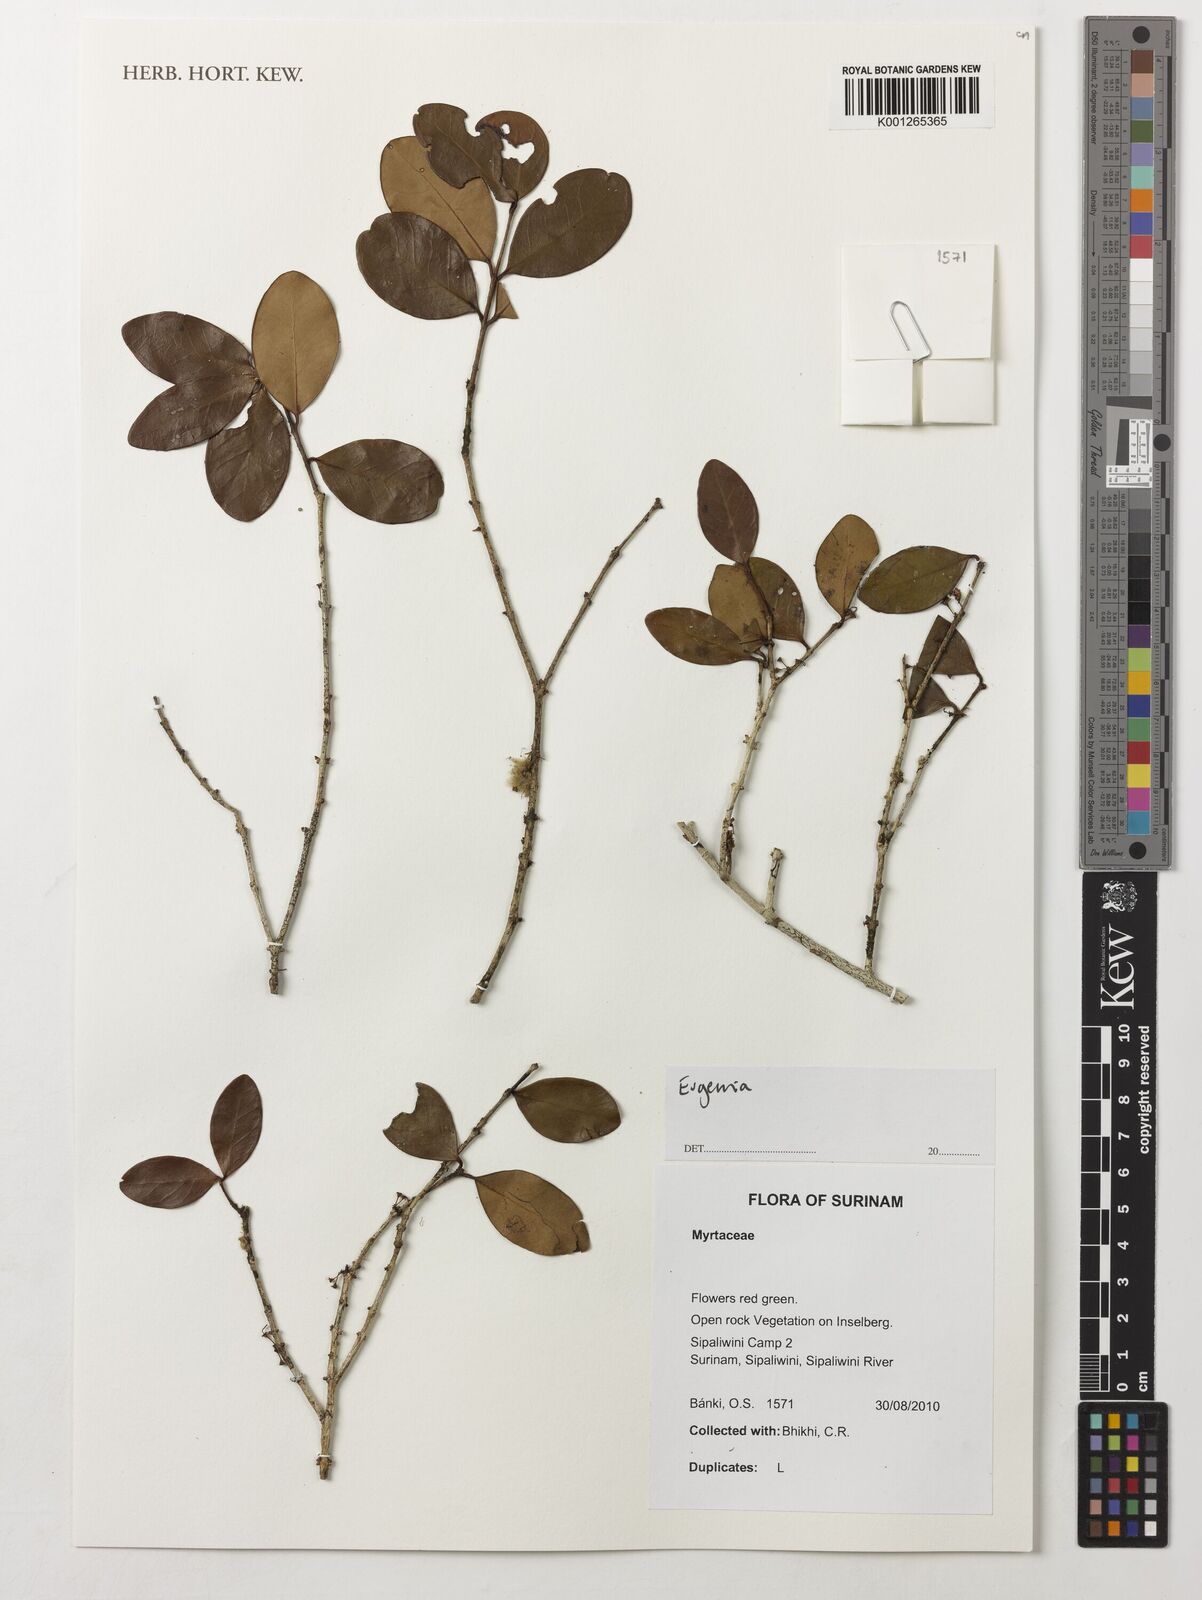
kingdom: Plantae
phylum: Tracheophyta
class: Magnoliopsida
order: Myrtales
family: Myrtaceae
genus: Eugenia
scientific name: Eugenia
